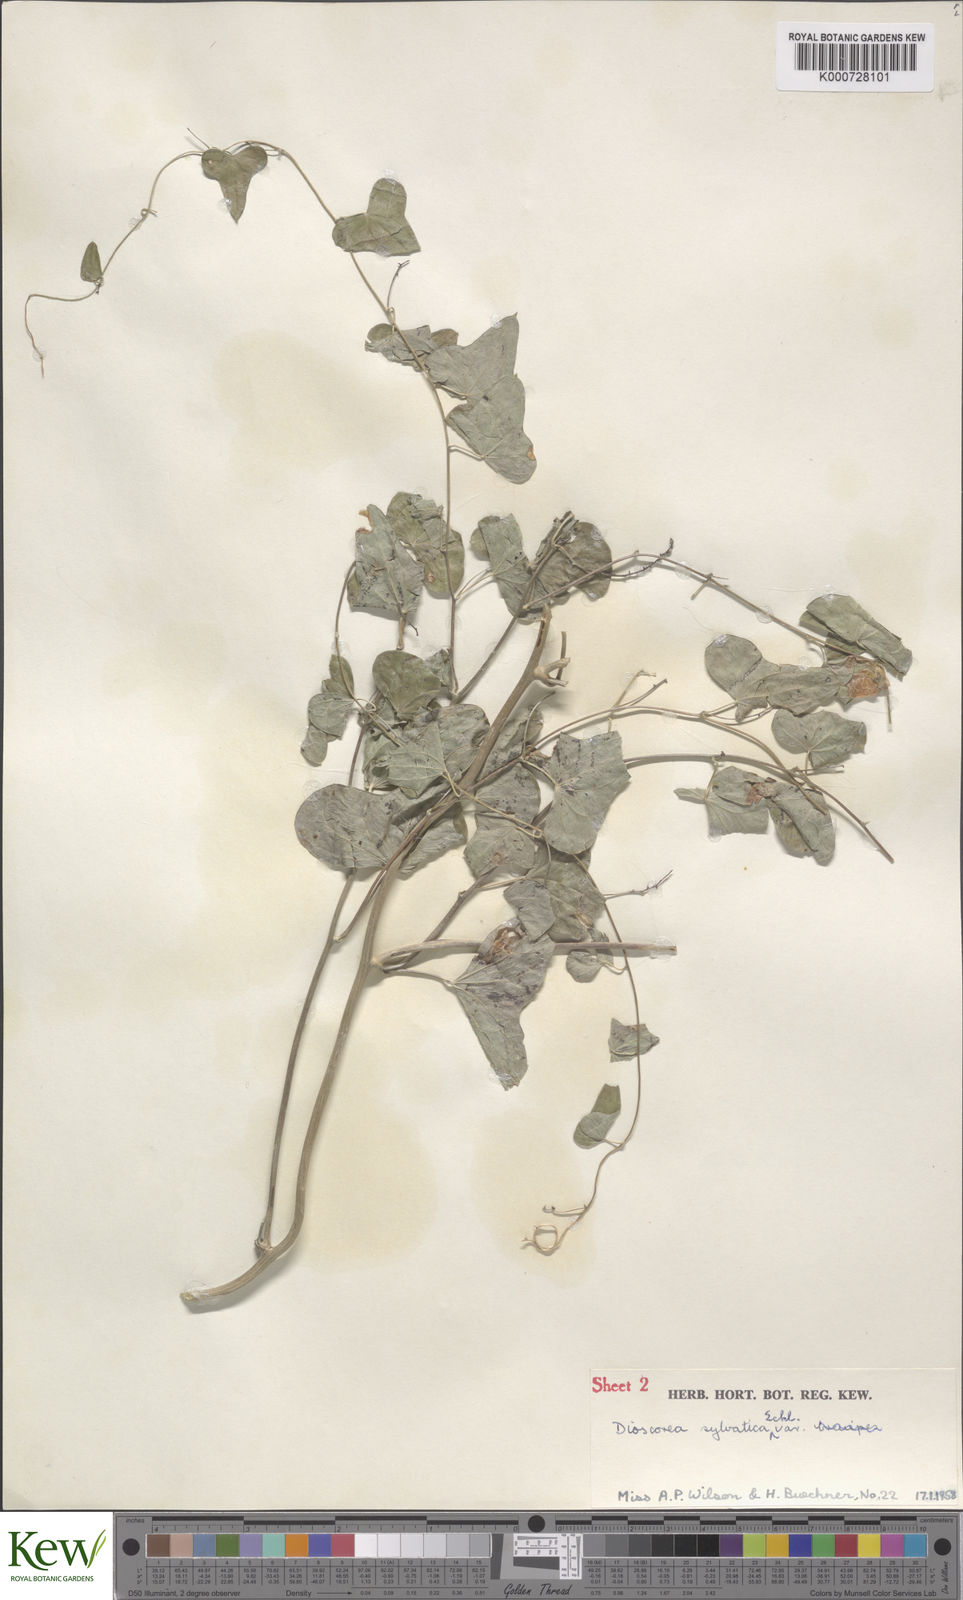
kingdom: Plantae
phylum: Tracheophyta
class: Liliopsida
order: Dioscoreales
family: Dioscoreaceae
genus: Dioscorea
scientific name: Dioscorea sylvatica
